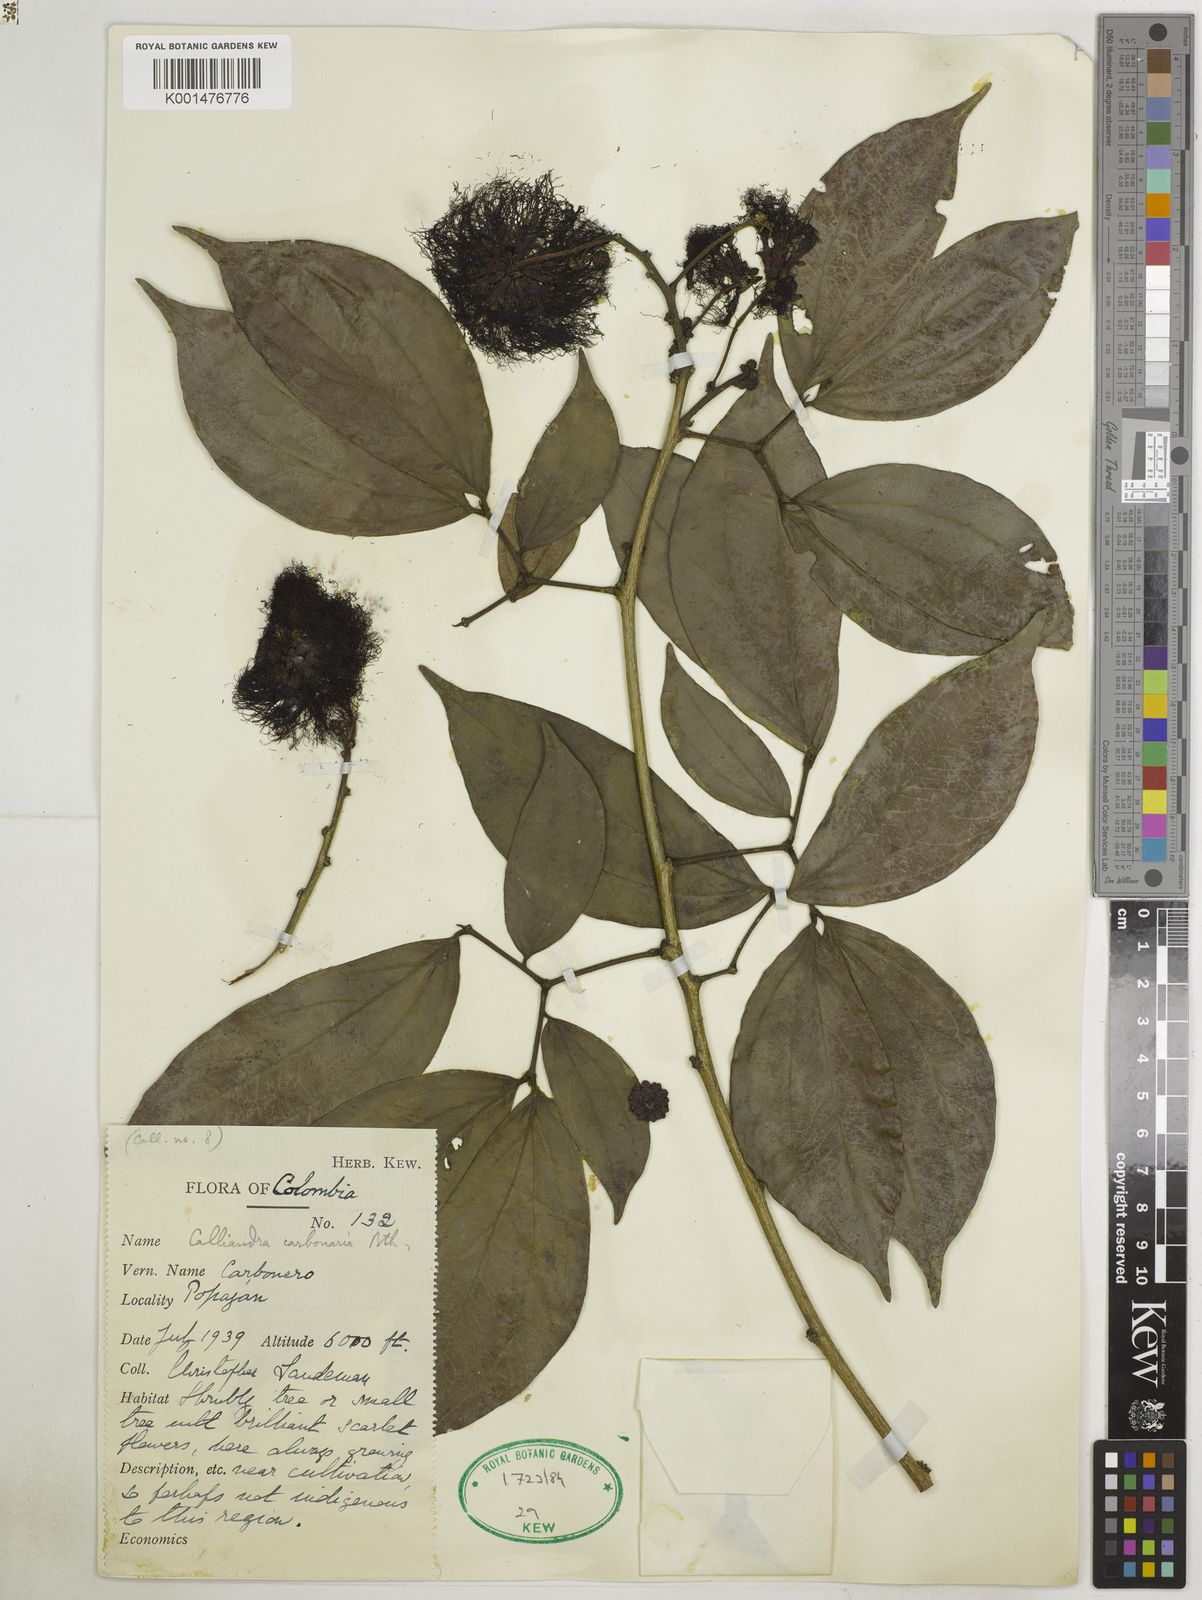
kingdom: Plantae
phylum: Tracheophyta
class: Magnoliopsida
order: Fabales
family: Fabaceae
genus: Calliandra
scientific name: Calliandra trinervia
